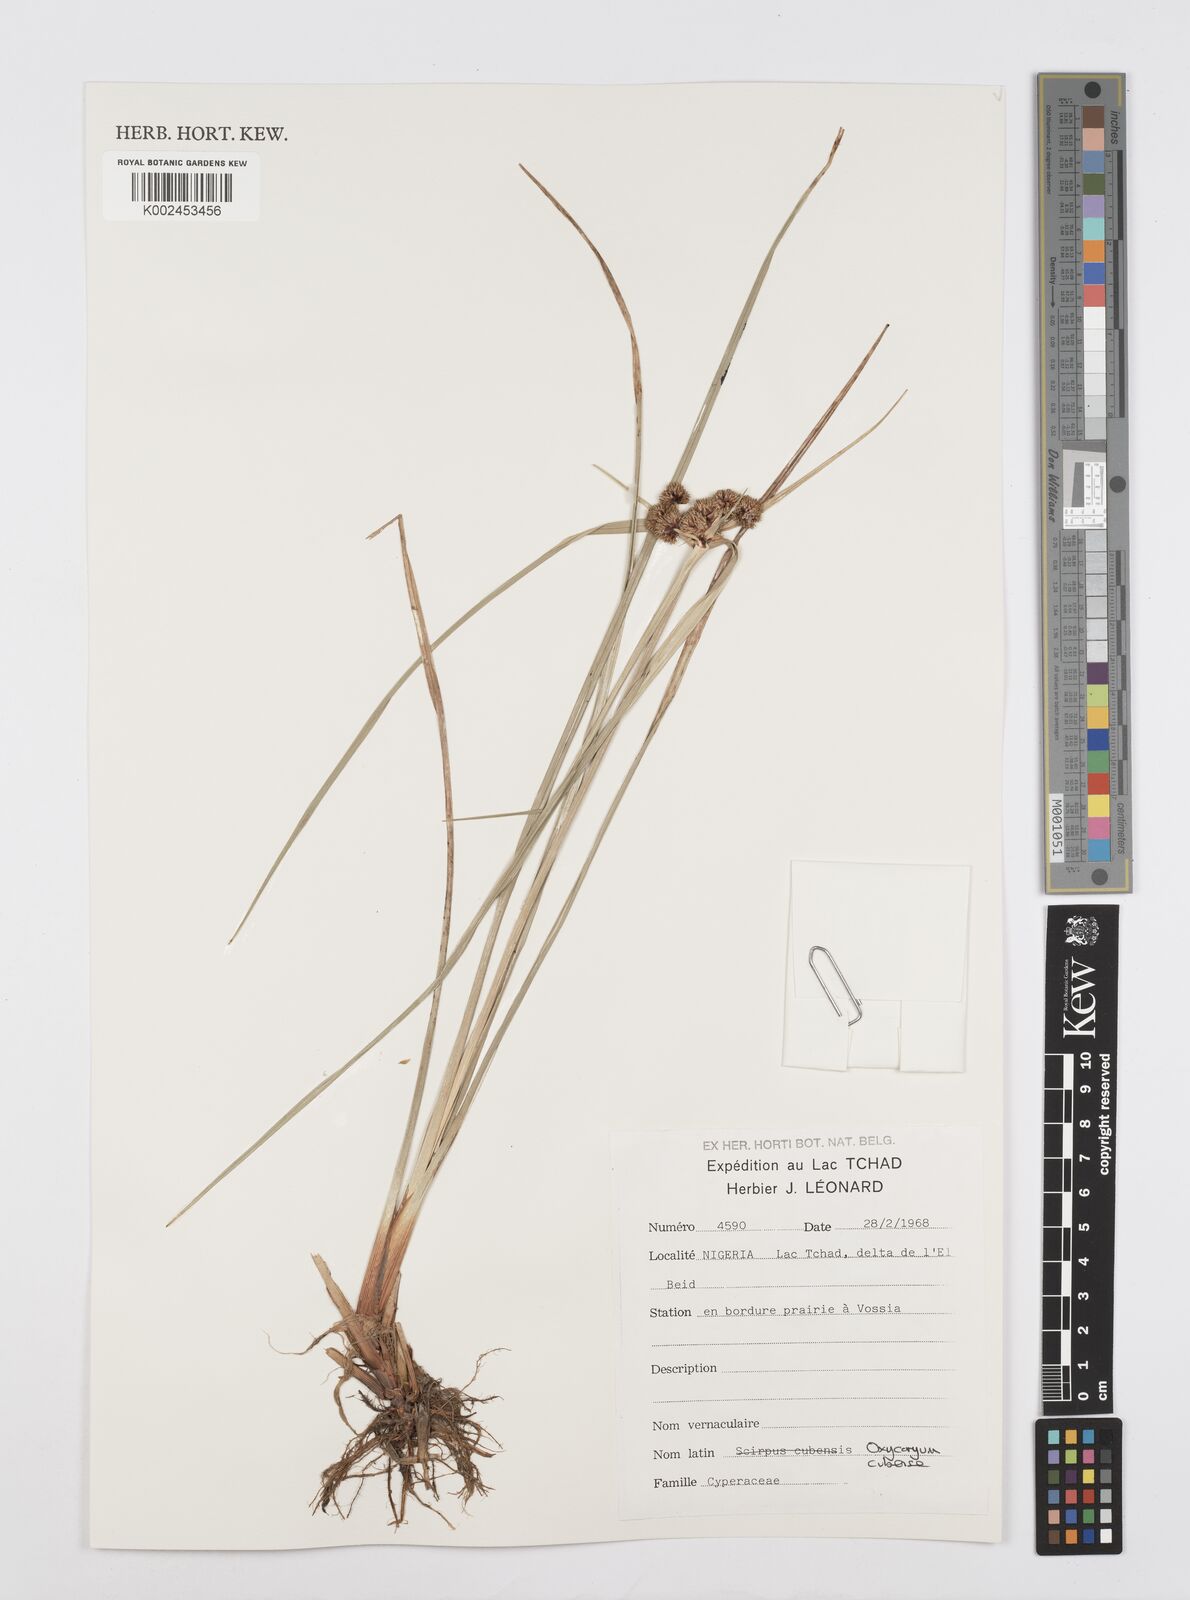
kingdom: Plantae
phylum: Tracheophyta
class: Liliopsida
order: Poales
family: Cyperaceae
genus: Cyperus
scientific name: Cyperus elegans
